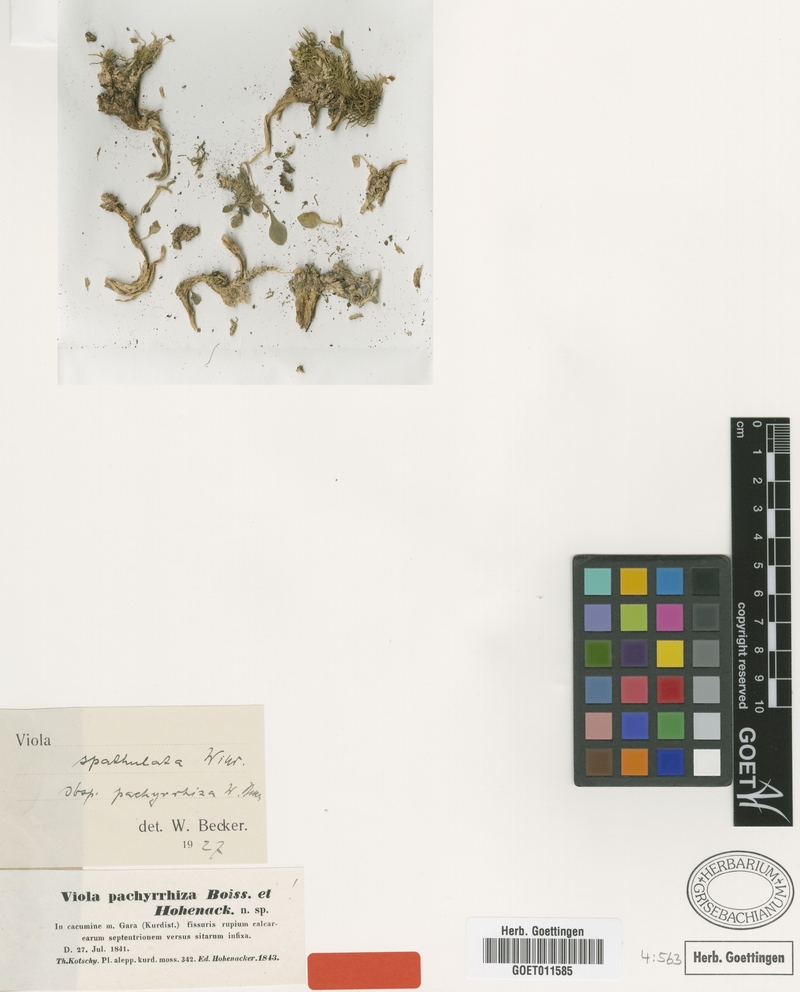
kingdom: Plantae
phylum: Tracheophyta
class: Magnoliopsida
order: Malpighiales
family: Violaceae
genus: Viola
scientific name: Viola spathulata
